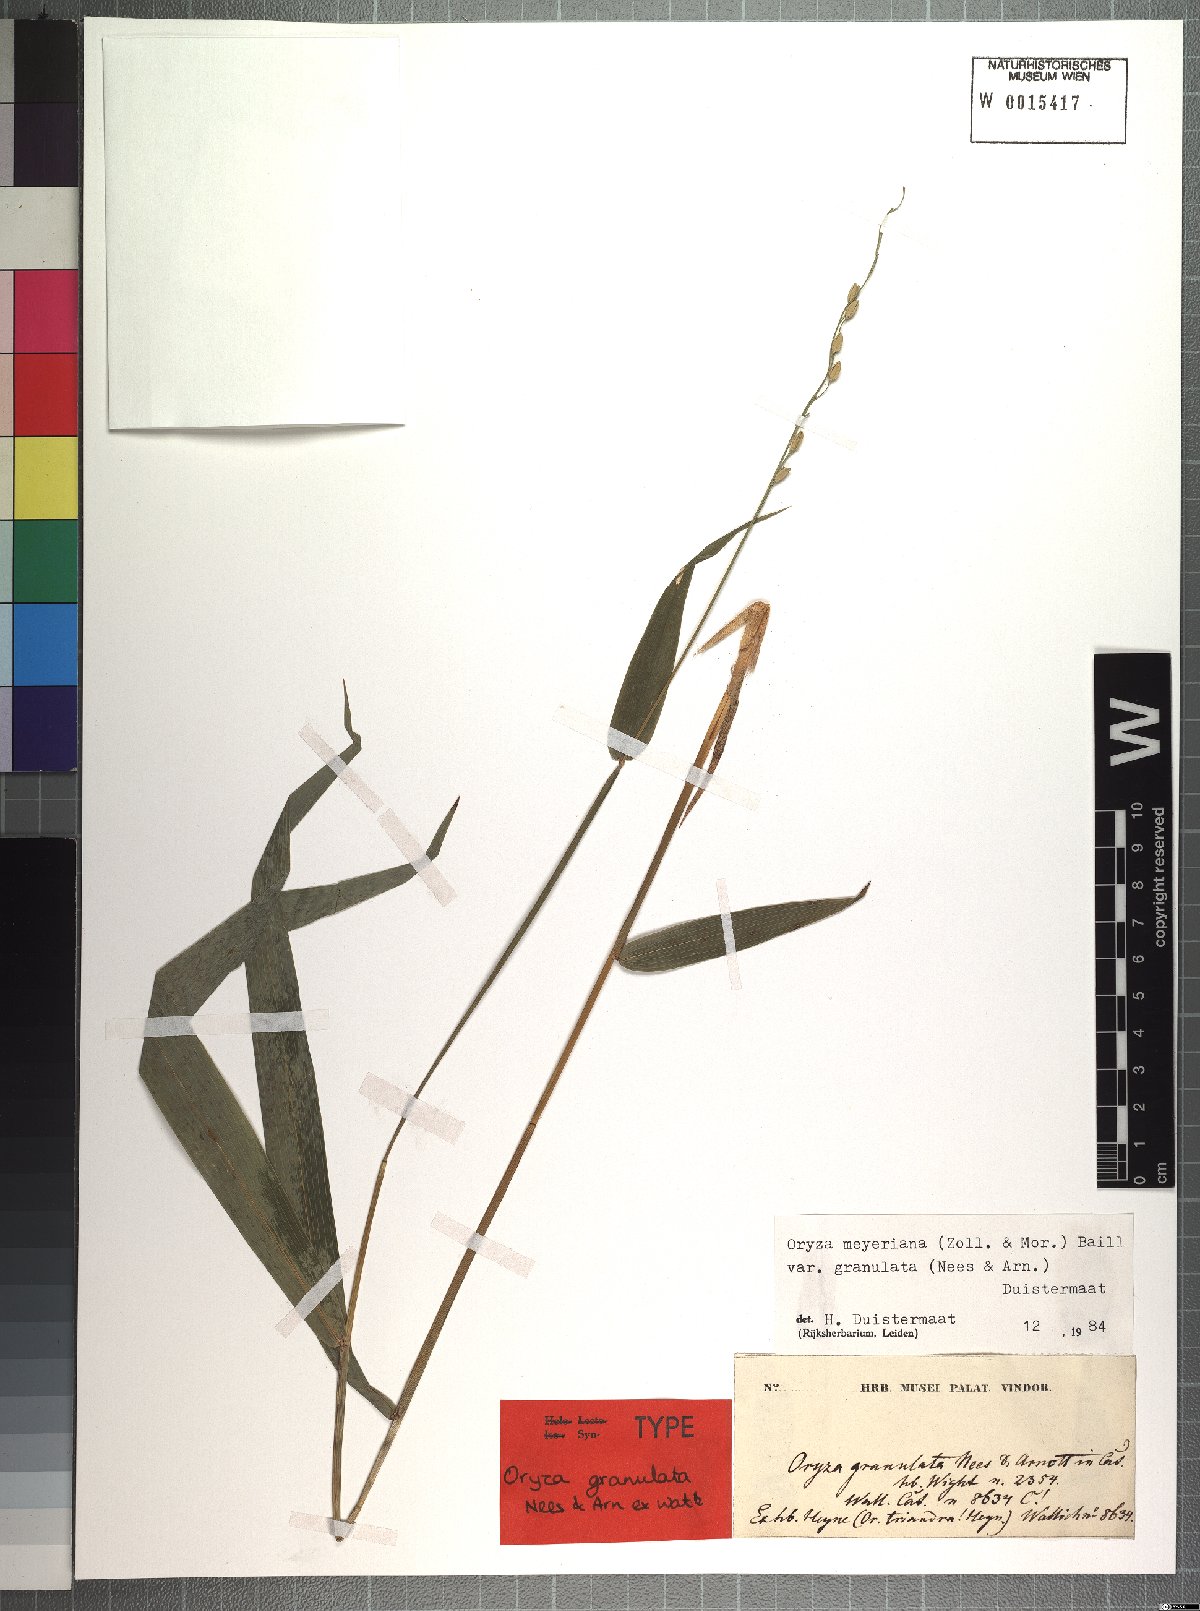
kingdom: Plantae
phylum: Tracheophyta
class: Liliopsida
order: Poales
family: Poaceae
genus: Oryza
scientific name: Oryza meyeriana
